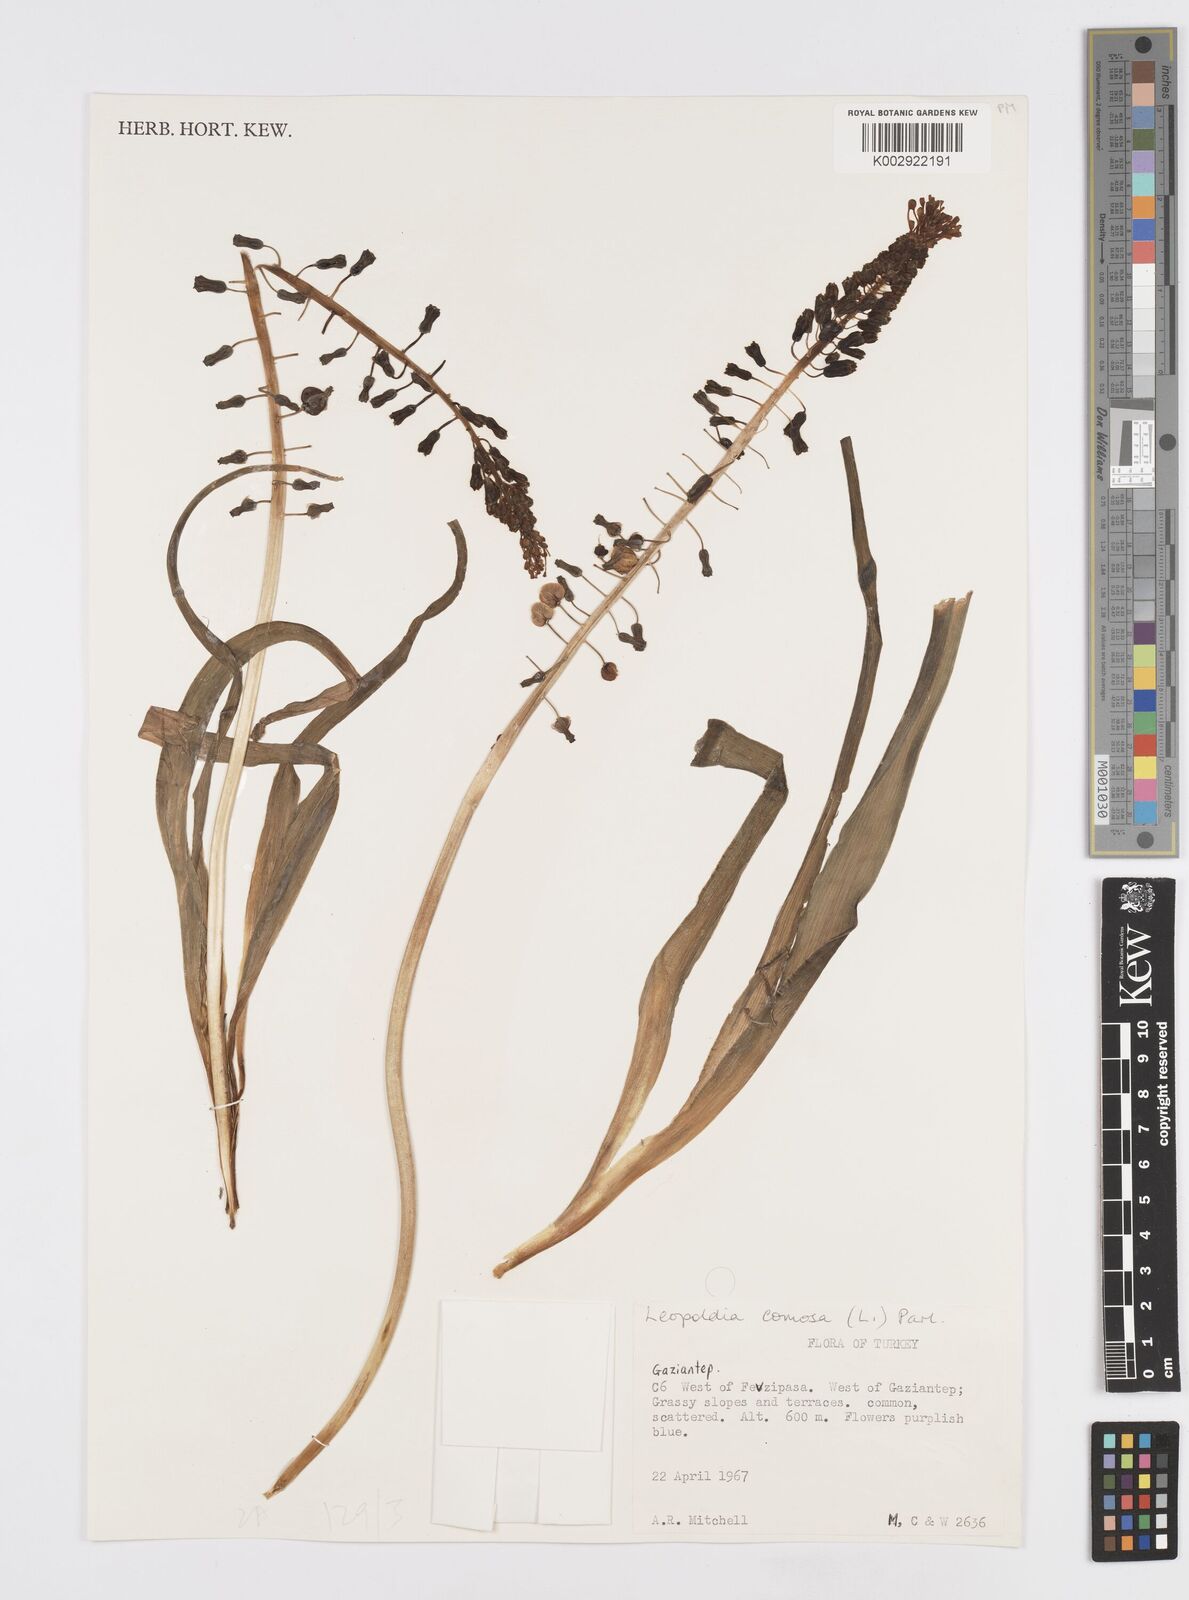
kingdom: Plantae
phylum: Tracheophyta
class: Liliopsida
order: Asparagales
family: Asparagaceae
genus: Muscari
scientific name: Muscari comosum
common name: Tassel hyacinth
